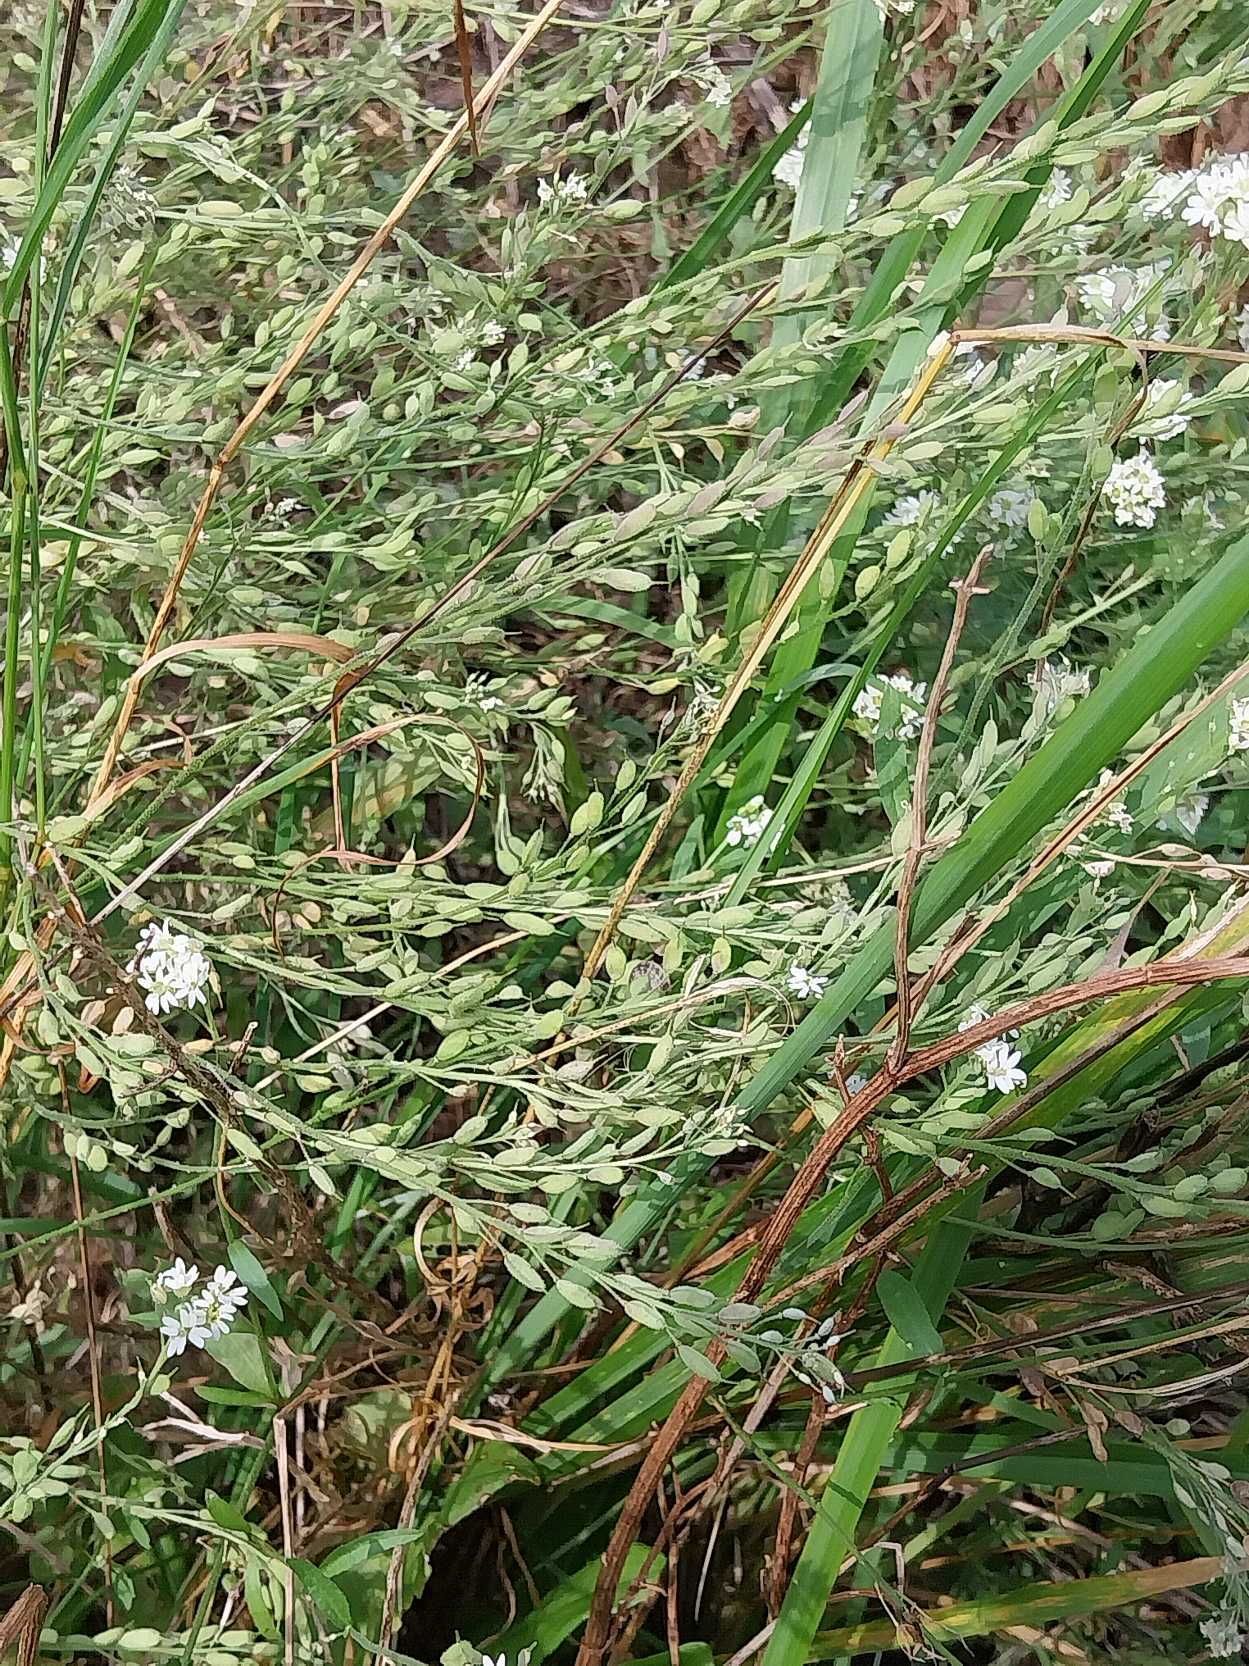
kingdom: Plantae
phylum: Tracheophyta
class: Magnoliopsida
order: Brassicales
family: Brassicaceae
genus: Berteroa
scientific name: Berteroa incana
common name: Kløvplade
